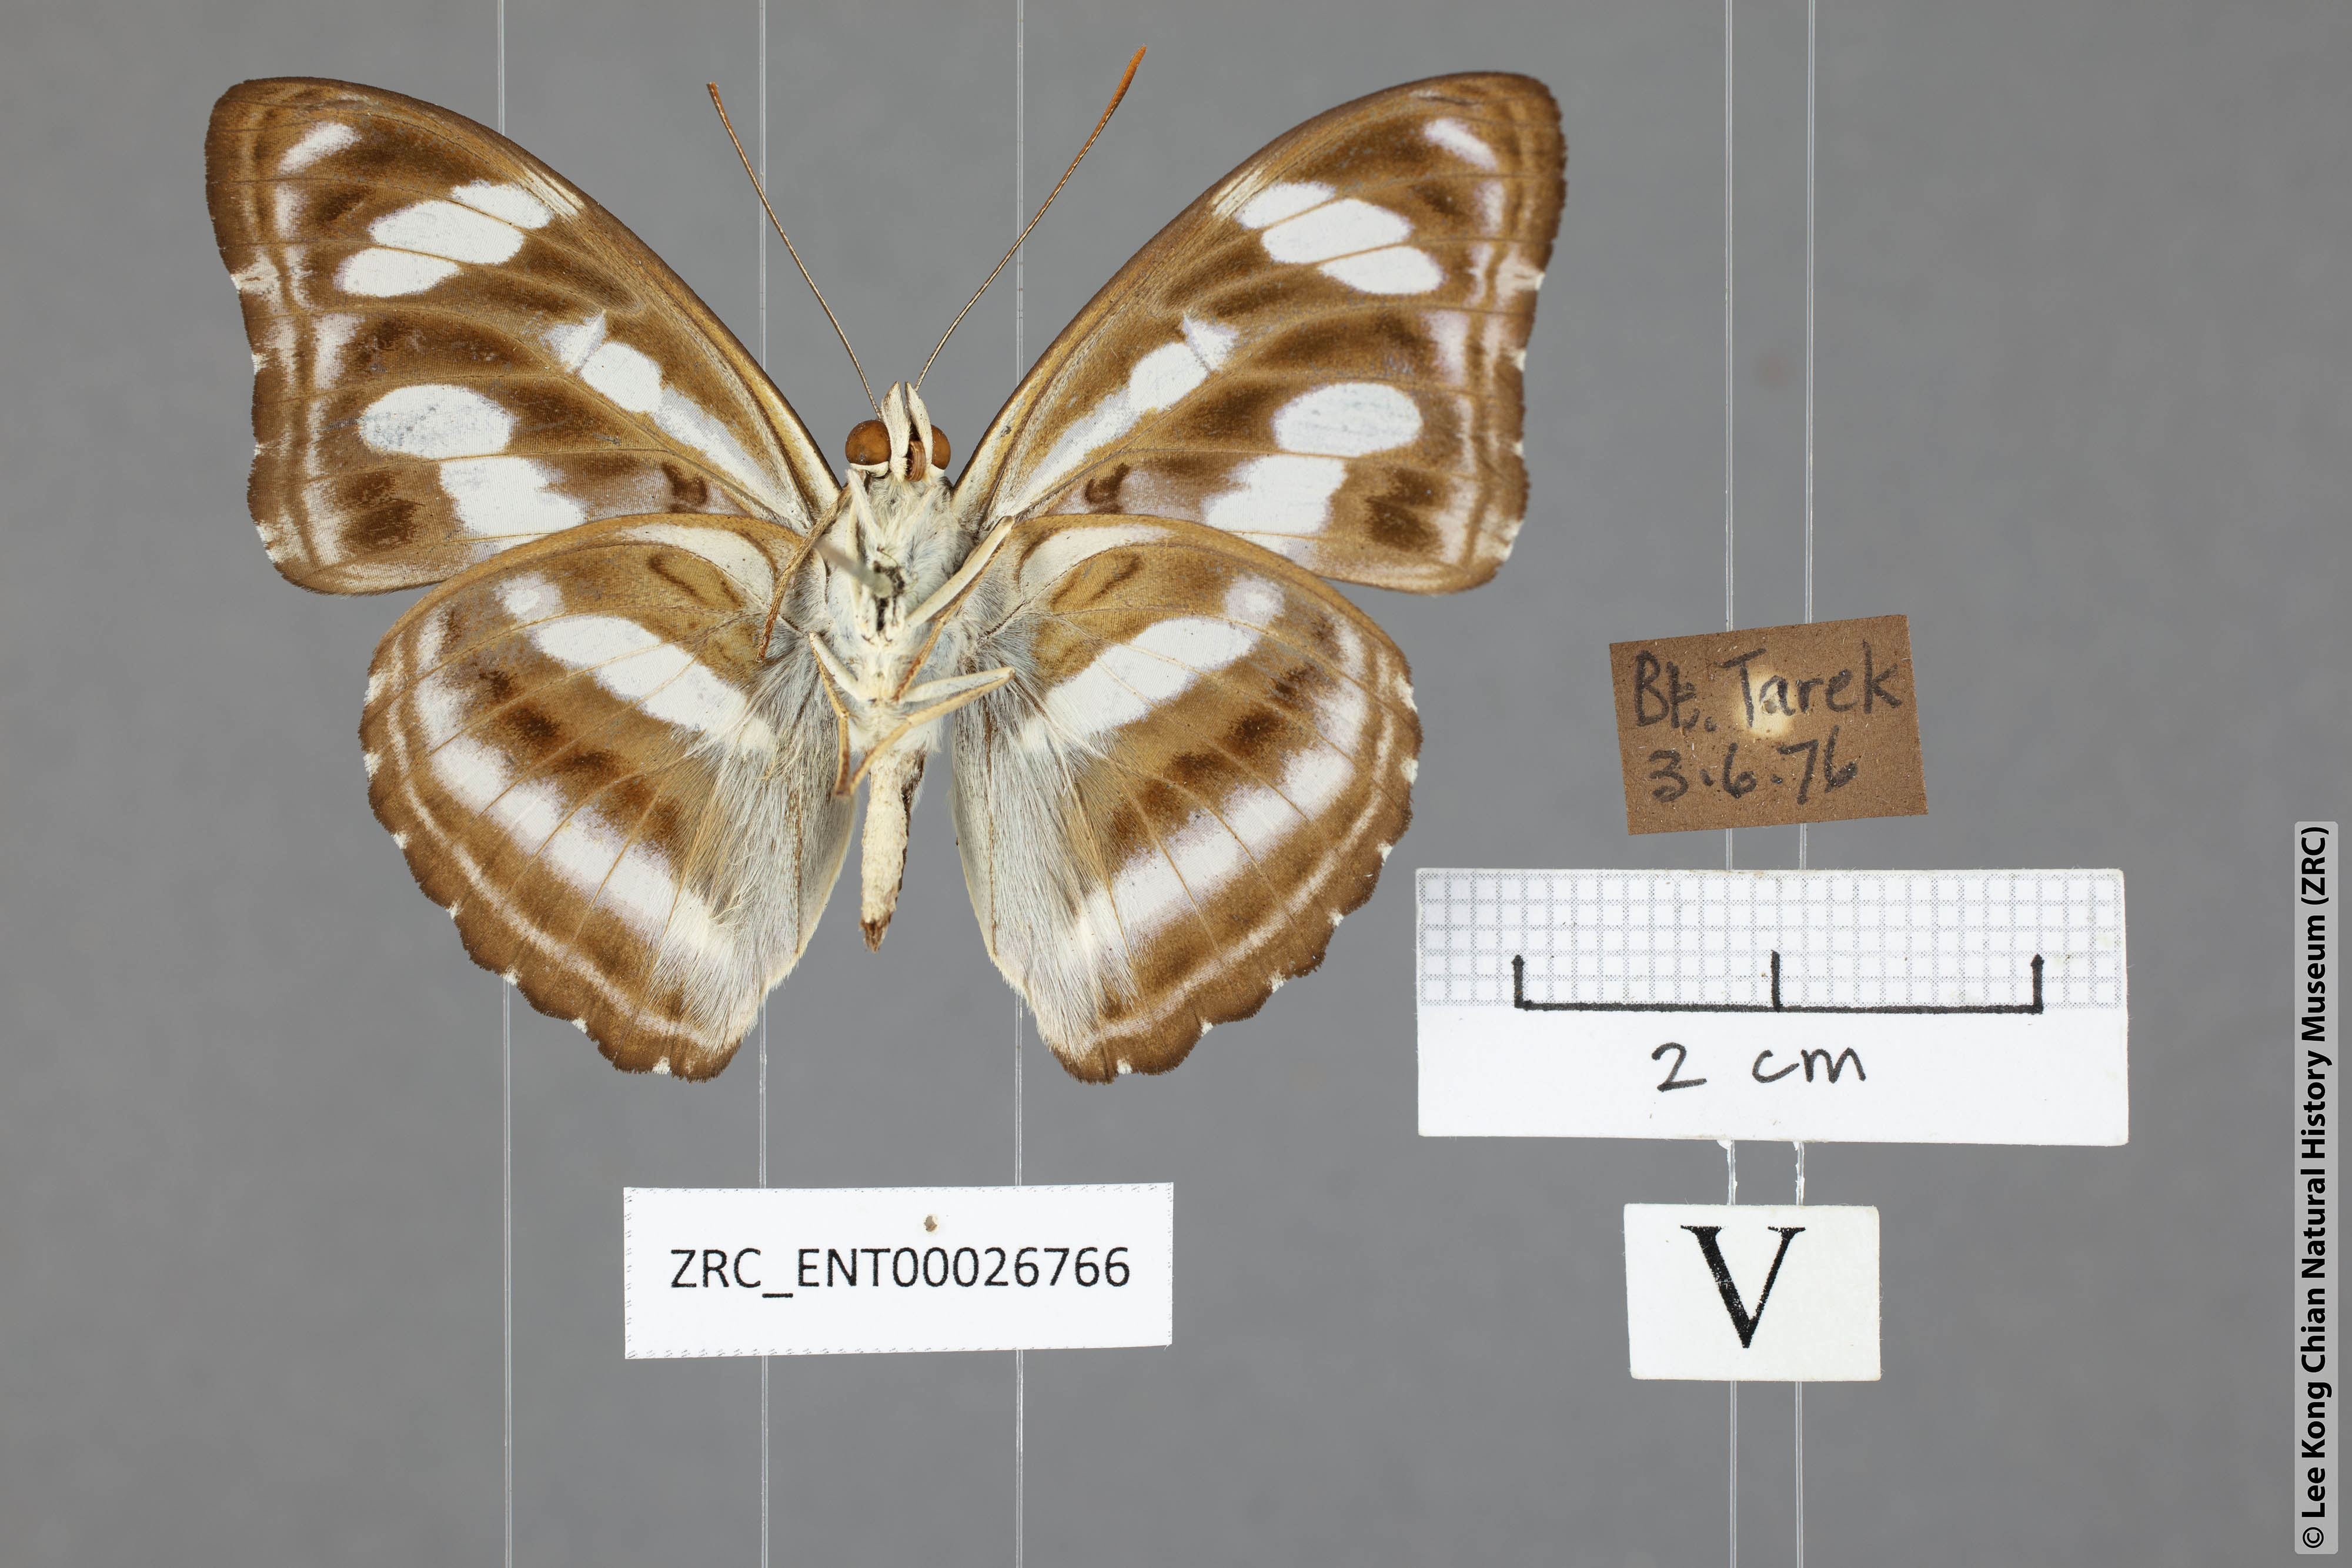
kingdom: Animalia
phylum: Arthropoda
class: Insecta
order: Lepidoptera
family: Nymphalidae
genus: Parathyma
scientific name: Parathyma nefte
